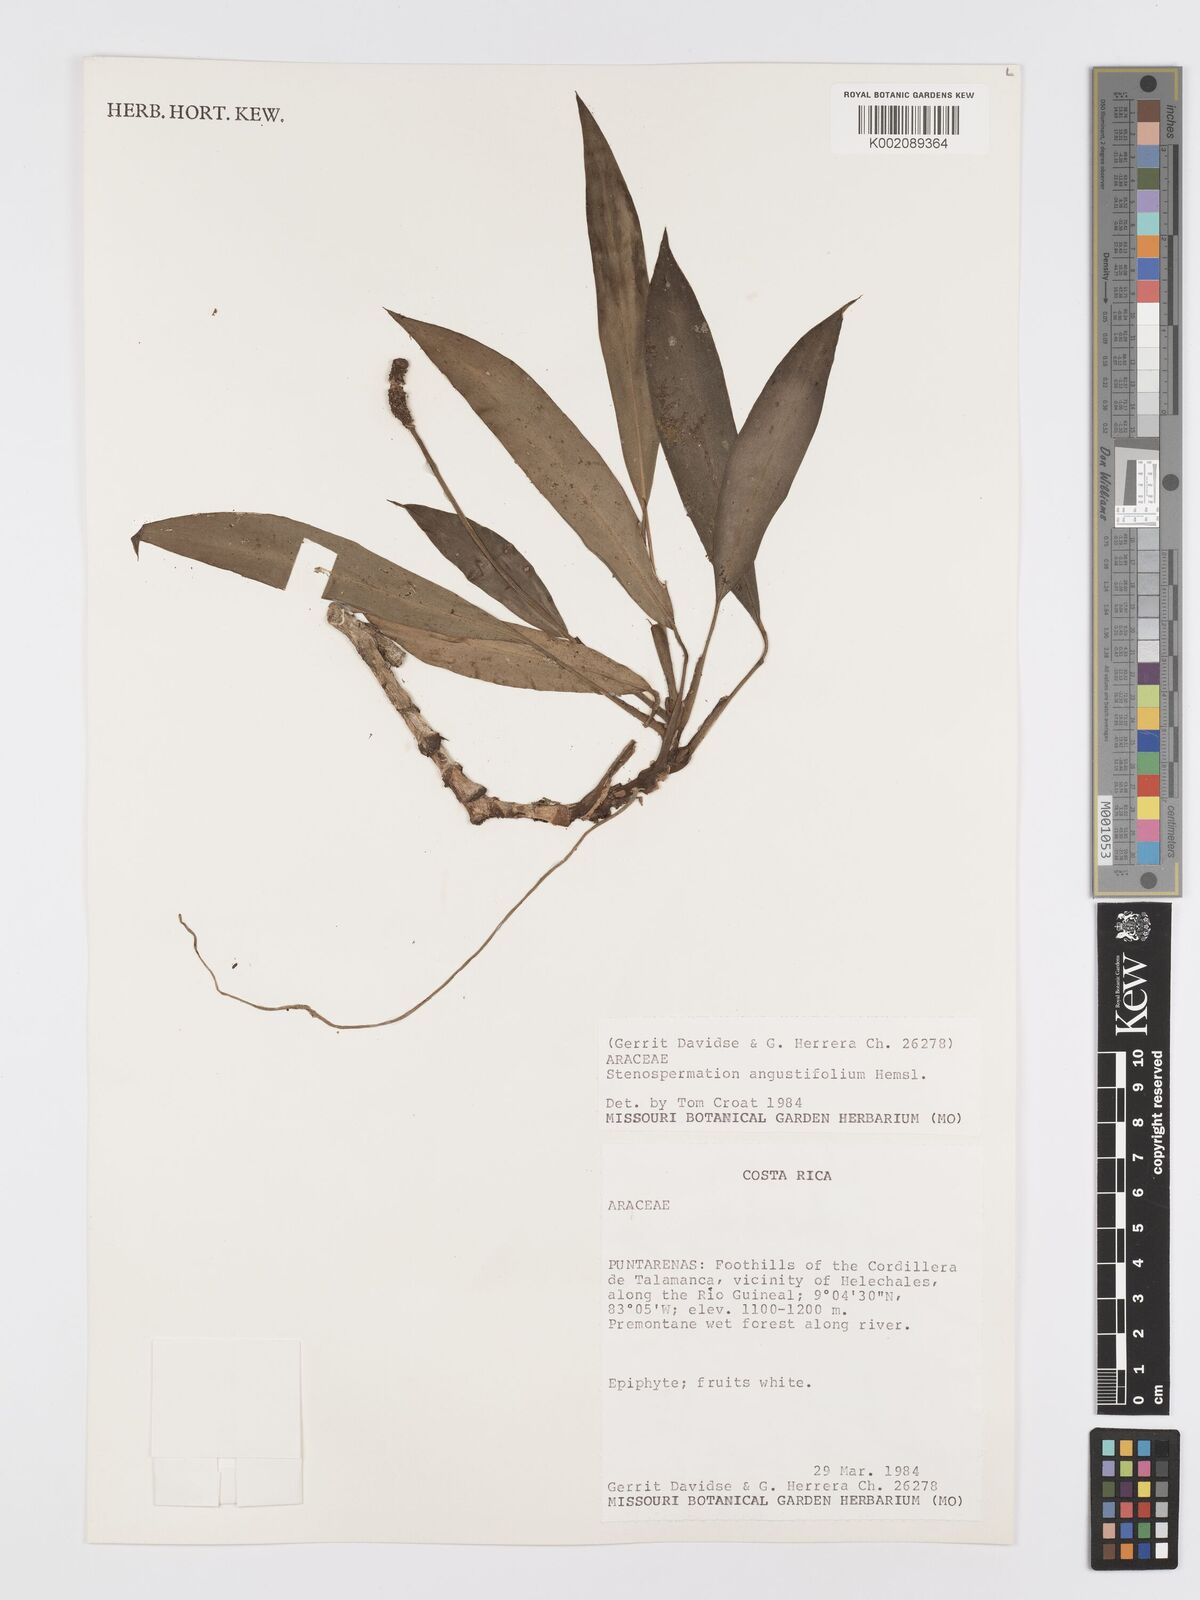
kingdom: Plantae
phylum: Tracheophyta
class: Liliopsida
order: Alismatales
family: Araceae
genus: Stenospermation
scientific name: Stenospermation angustifolium
